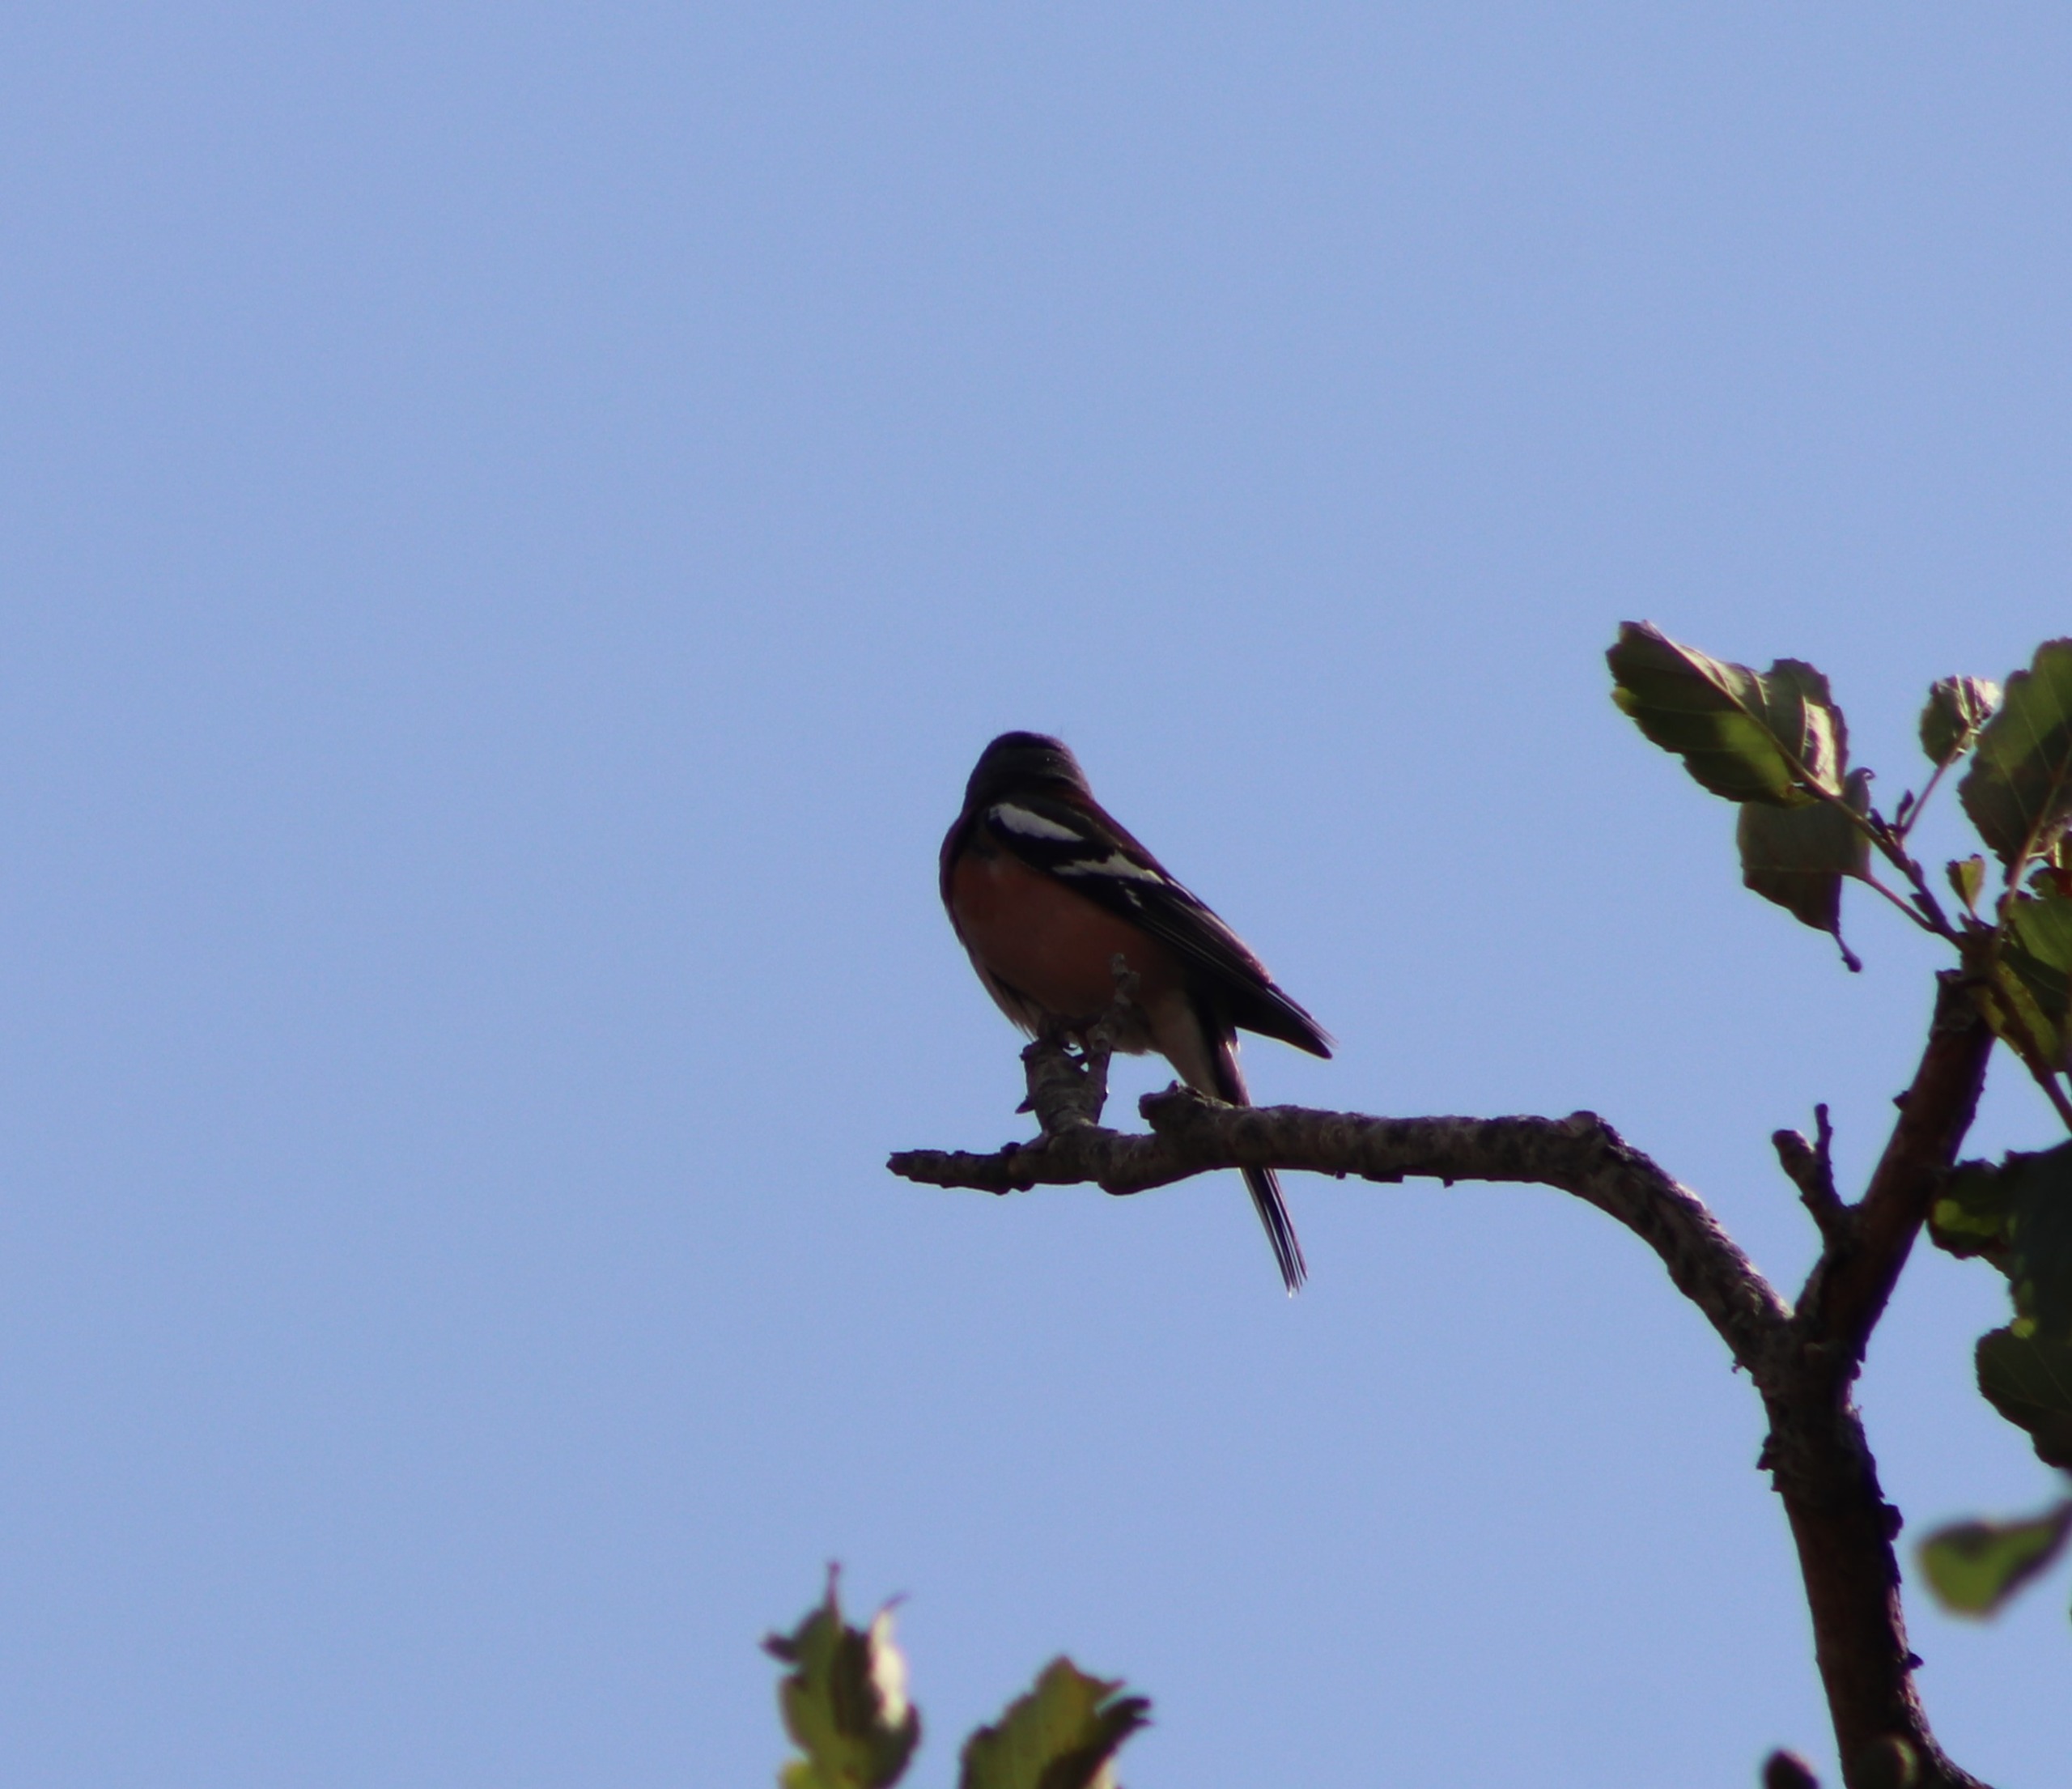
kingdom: Animalia
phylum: Chordata
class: Aves
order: Passeriformes
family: Fringillidae
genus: Fringilla
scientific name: Fringilla coelebs
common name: Bogfinke
